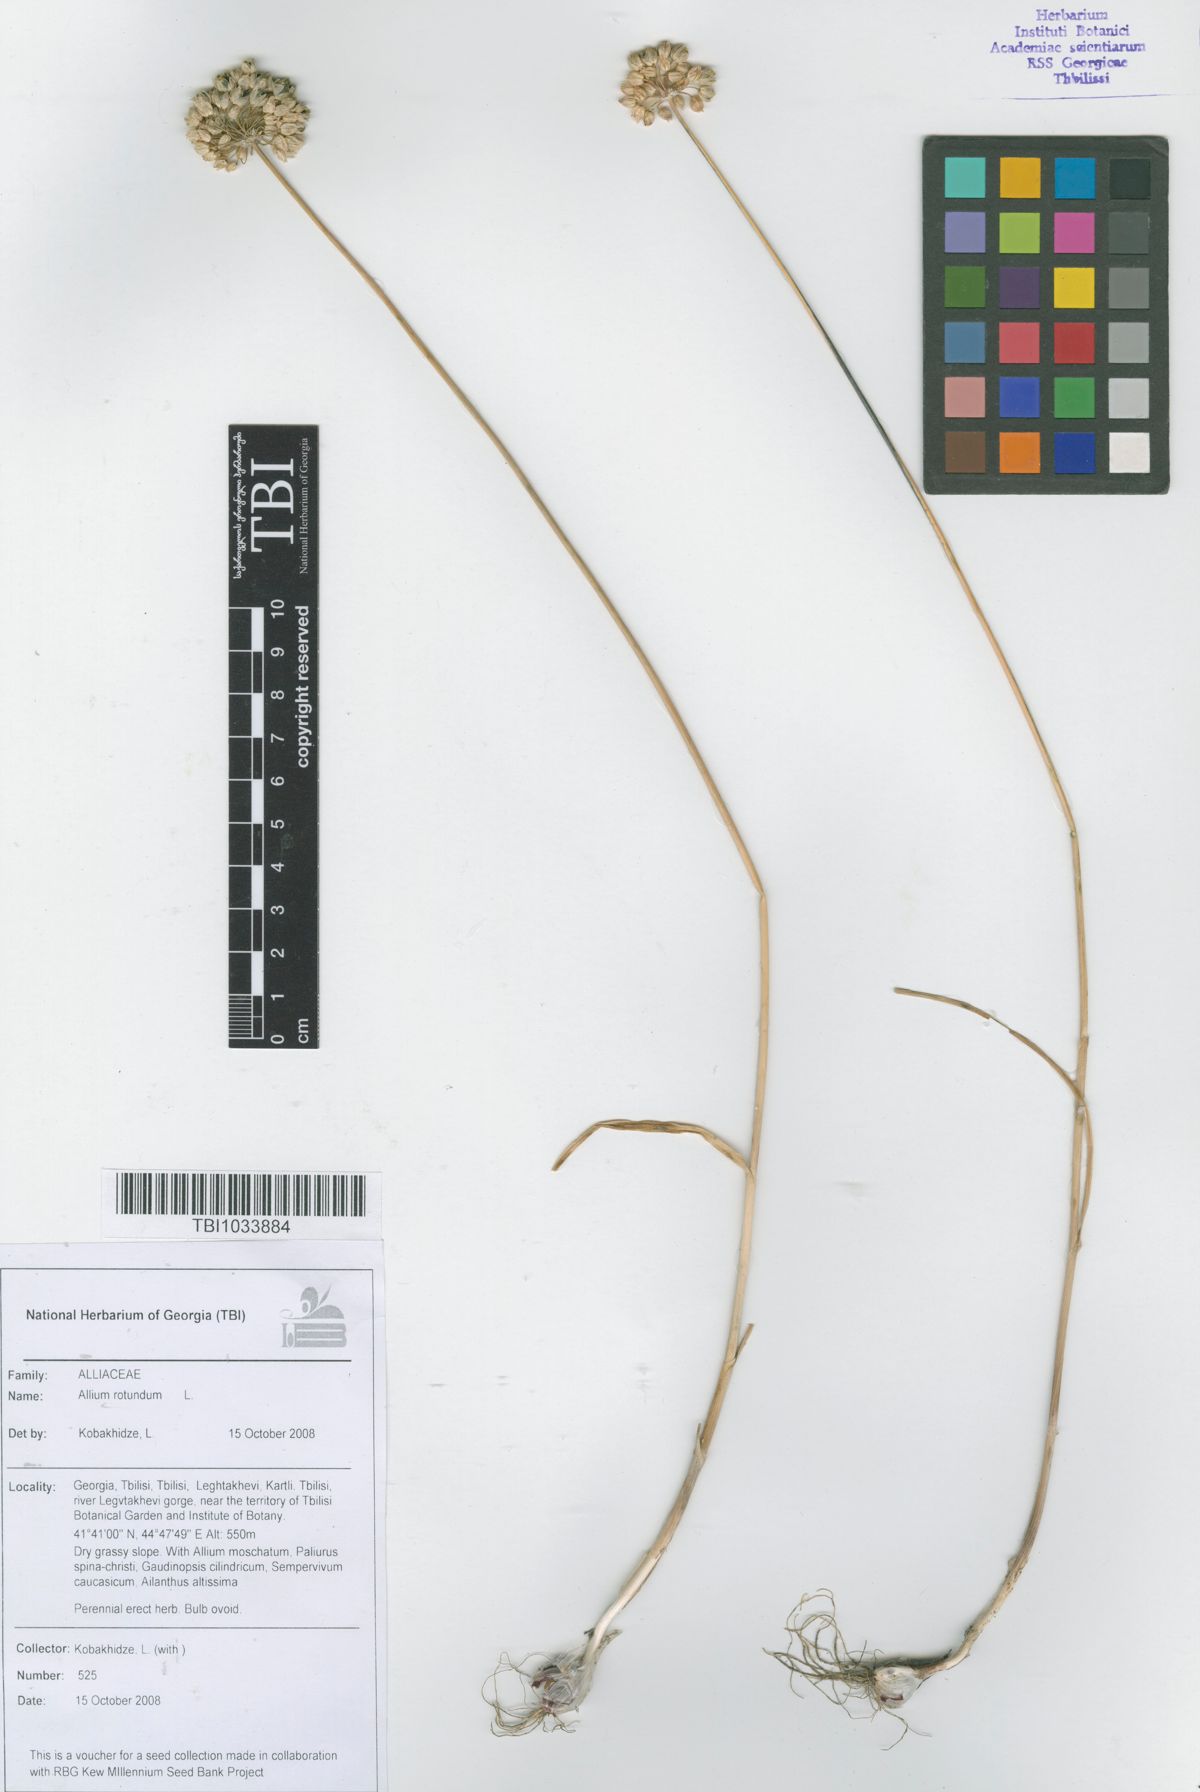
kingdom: Plantae
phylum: Tracheophyta
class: Liliopsida
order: Asparagales
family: Amaryllidaceae
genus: Allium
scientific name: Allium rotundum
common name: Sand leek
